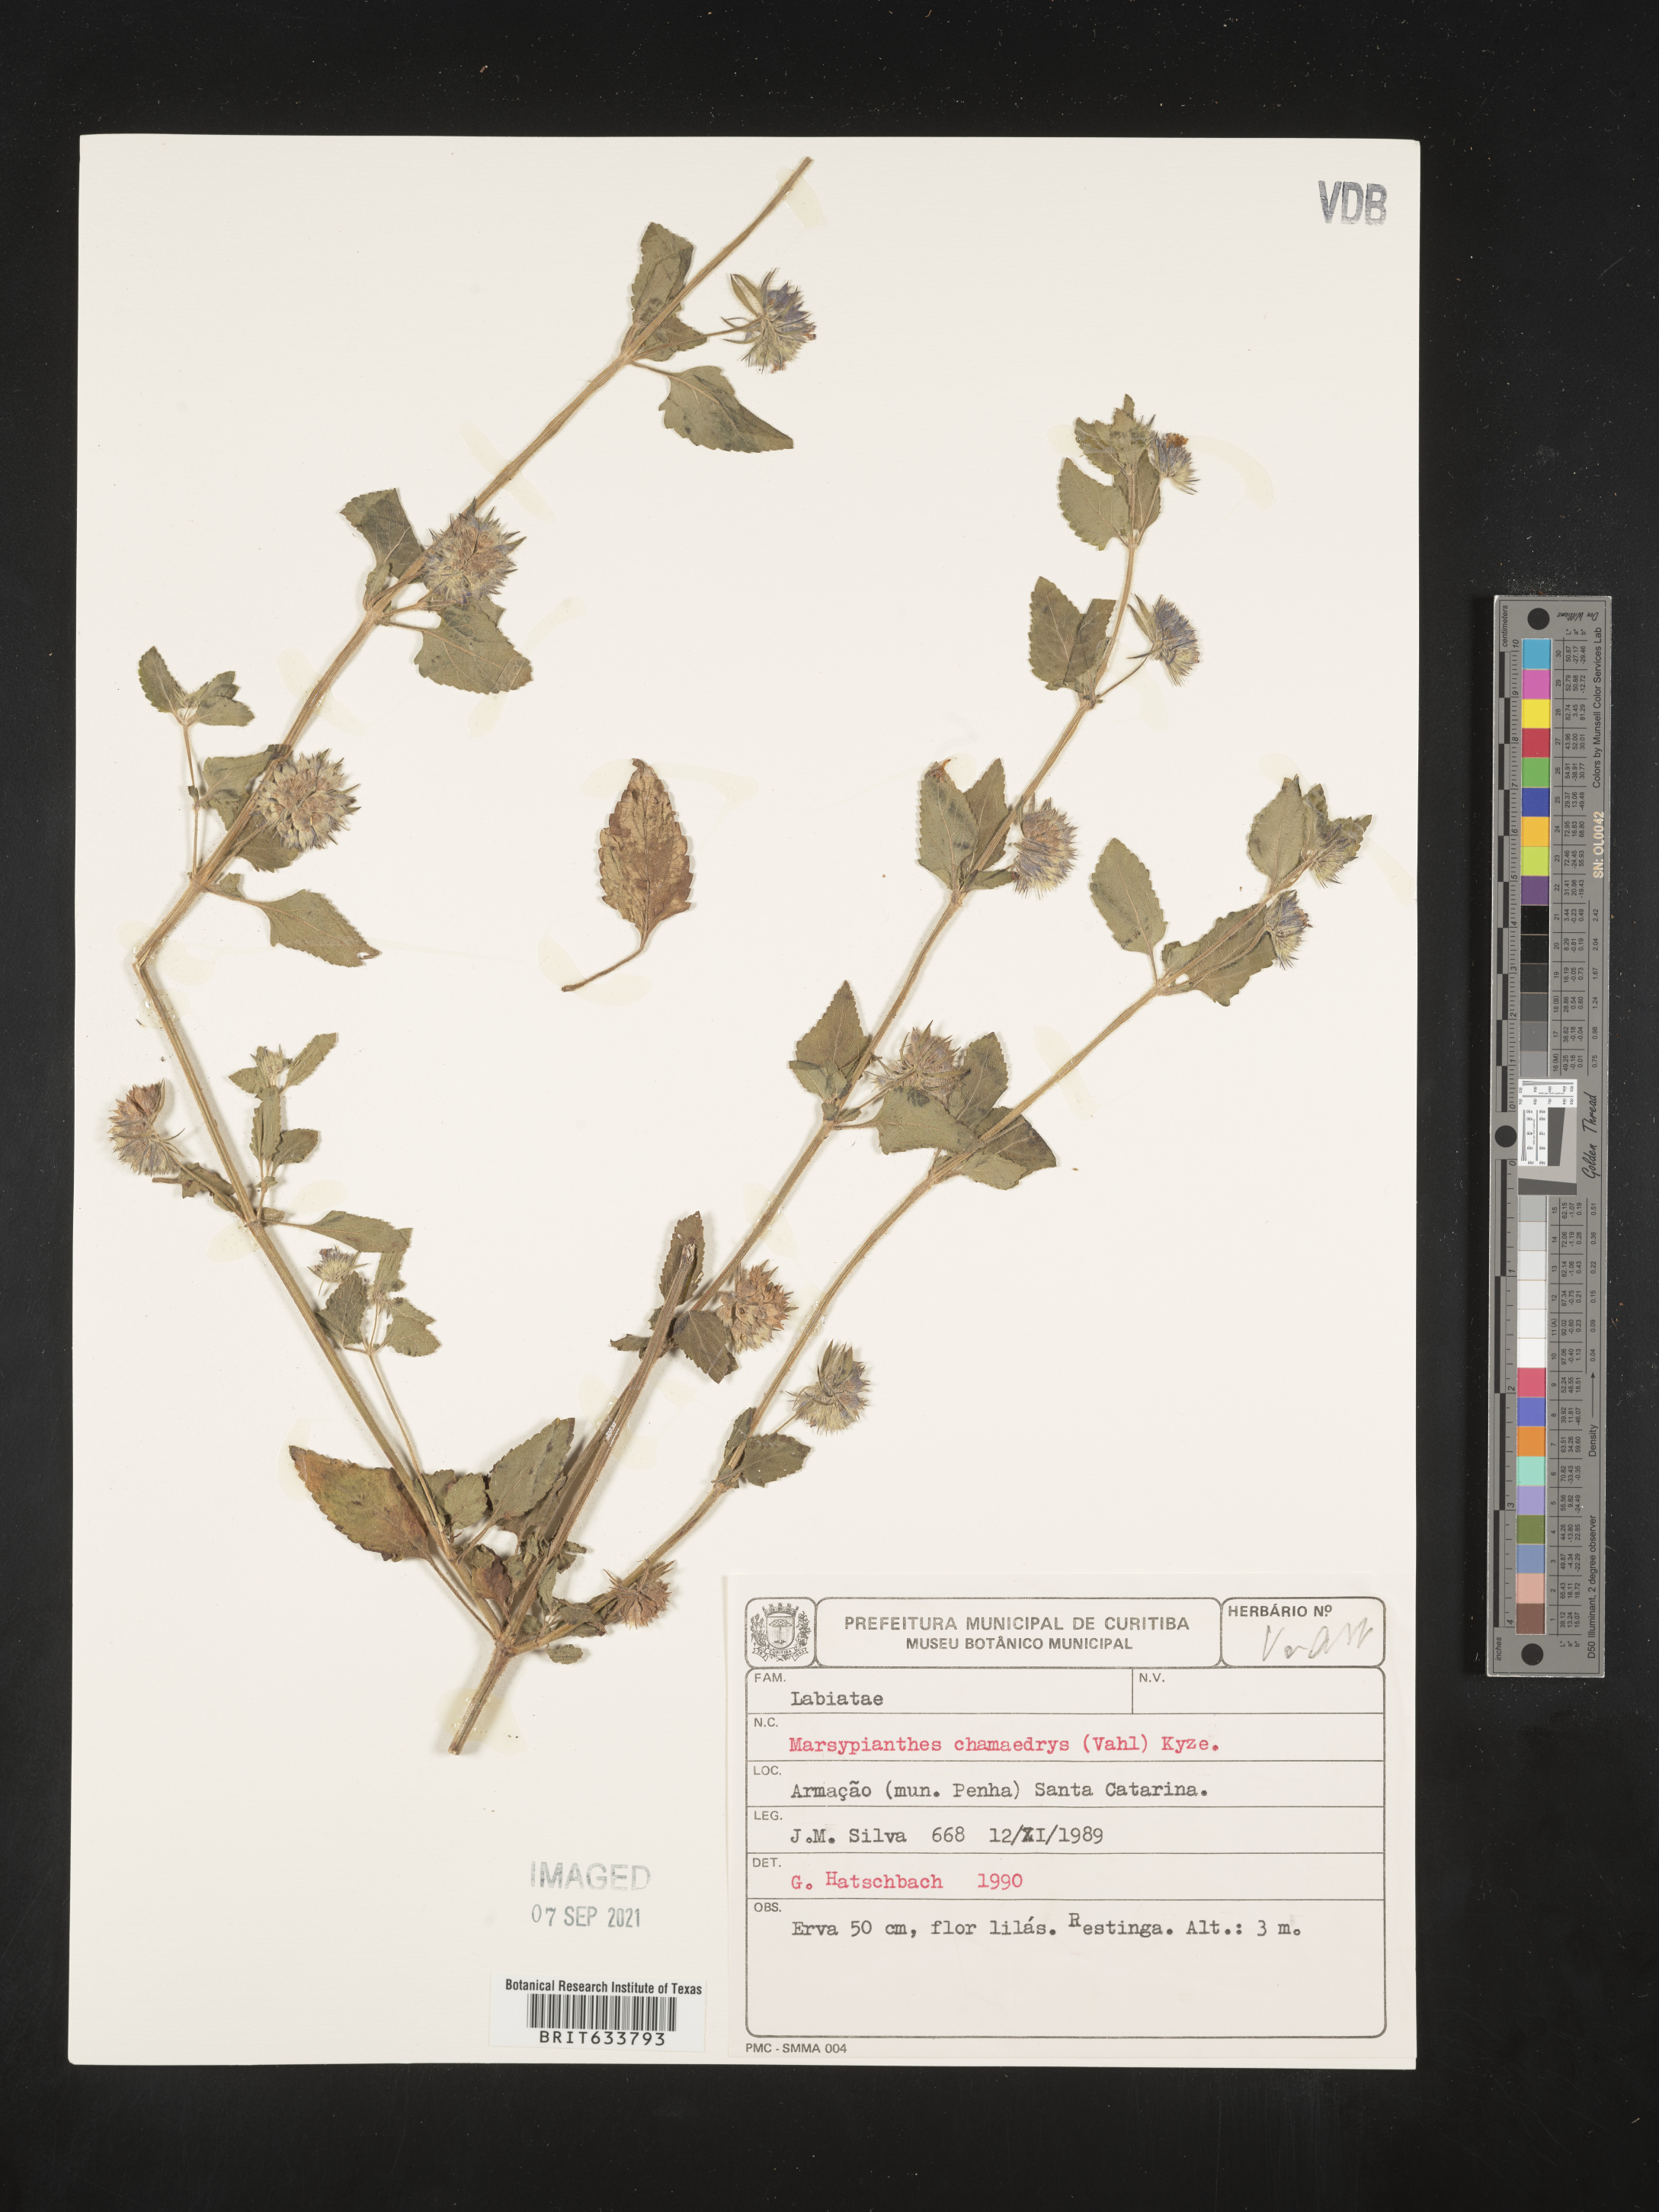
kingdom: Plantae
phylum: Tracheophyta
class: Magnoliopsida
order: Lamiales
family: Lamiaceae
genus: Marsypianthes
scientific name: Marsypianthes
